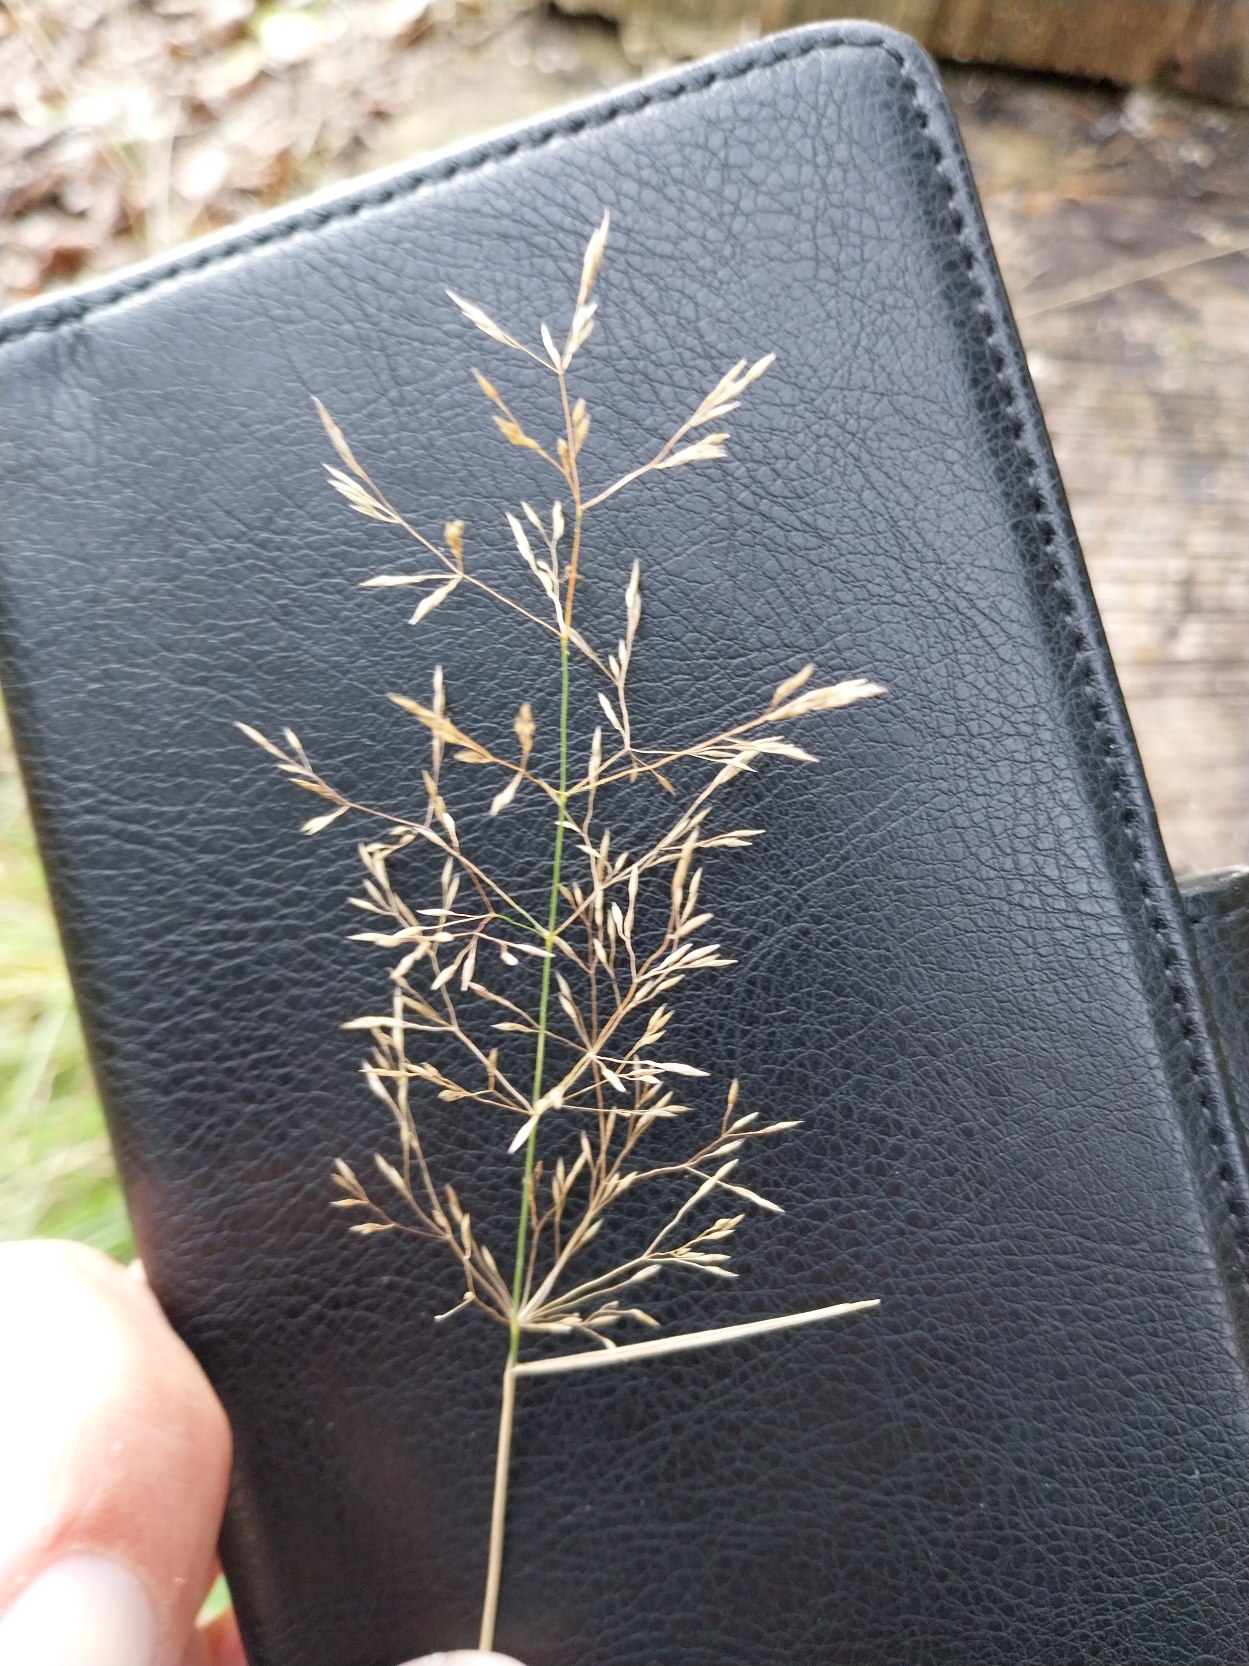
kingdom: Plantae
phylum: Tracheophyta
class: Liliopsida
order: Poales
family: Poaceae
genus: Agrostis
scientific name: Agrostis capillaris
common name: Almindelig hvene
